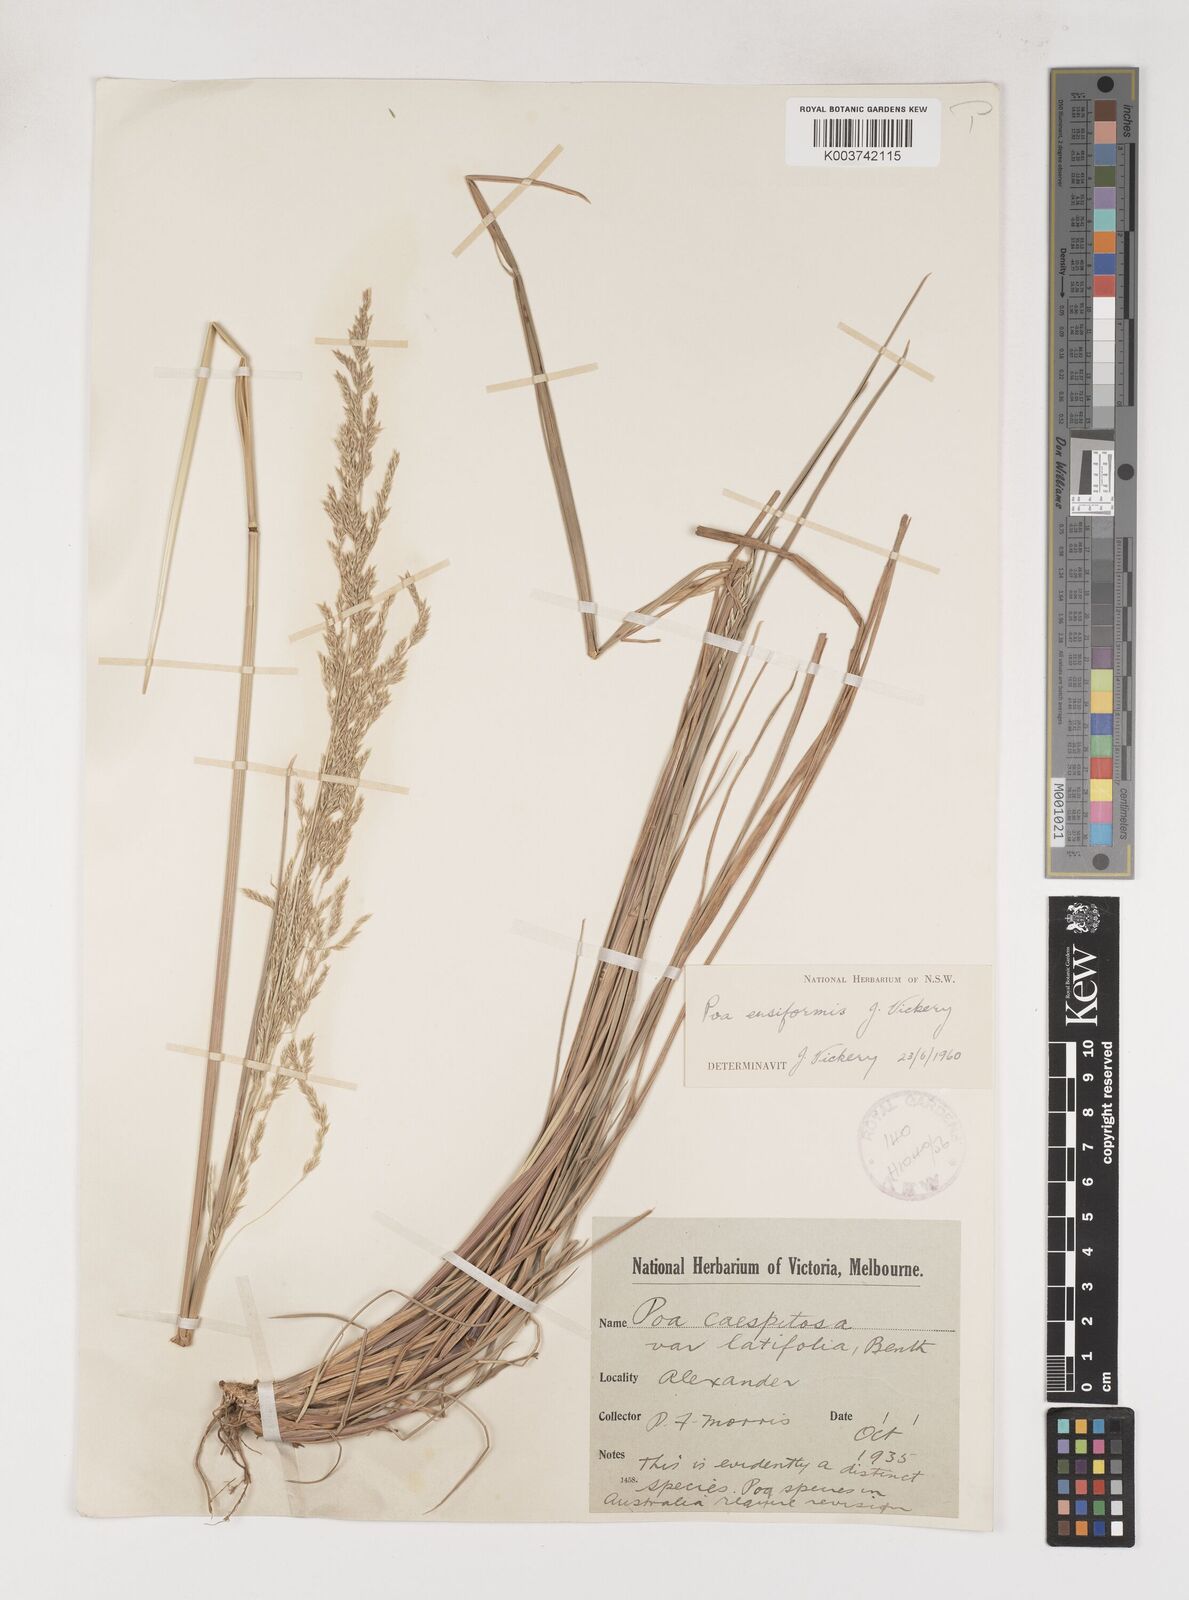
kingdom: Plantae
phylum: Tracheophyta
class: Liliopsida
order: Poales
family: Poaceae
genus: Poa
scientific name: Poa ensiformis
